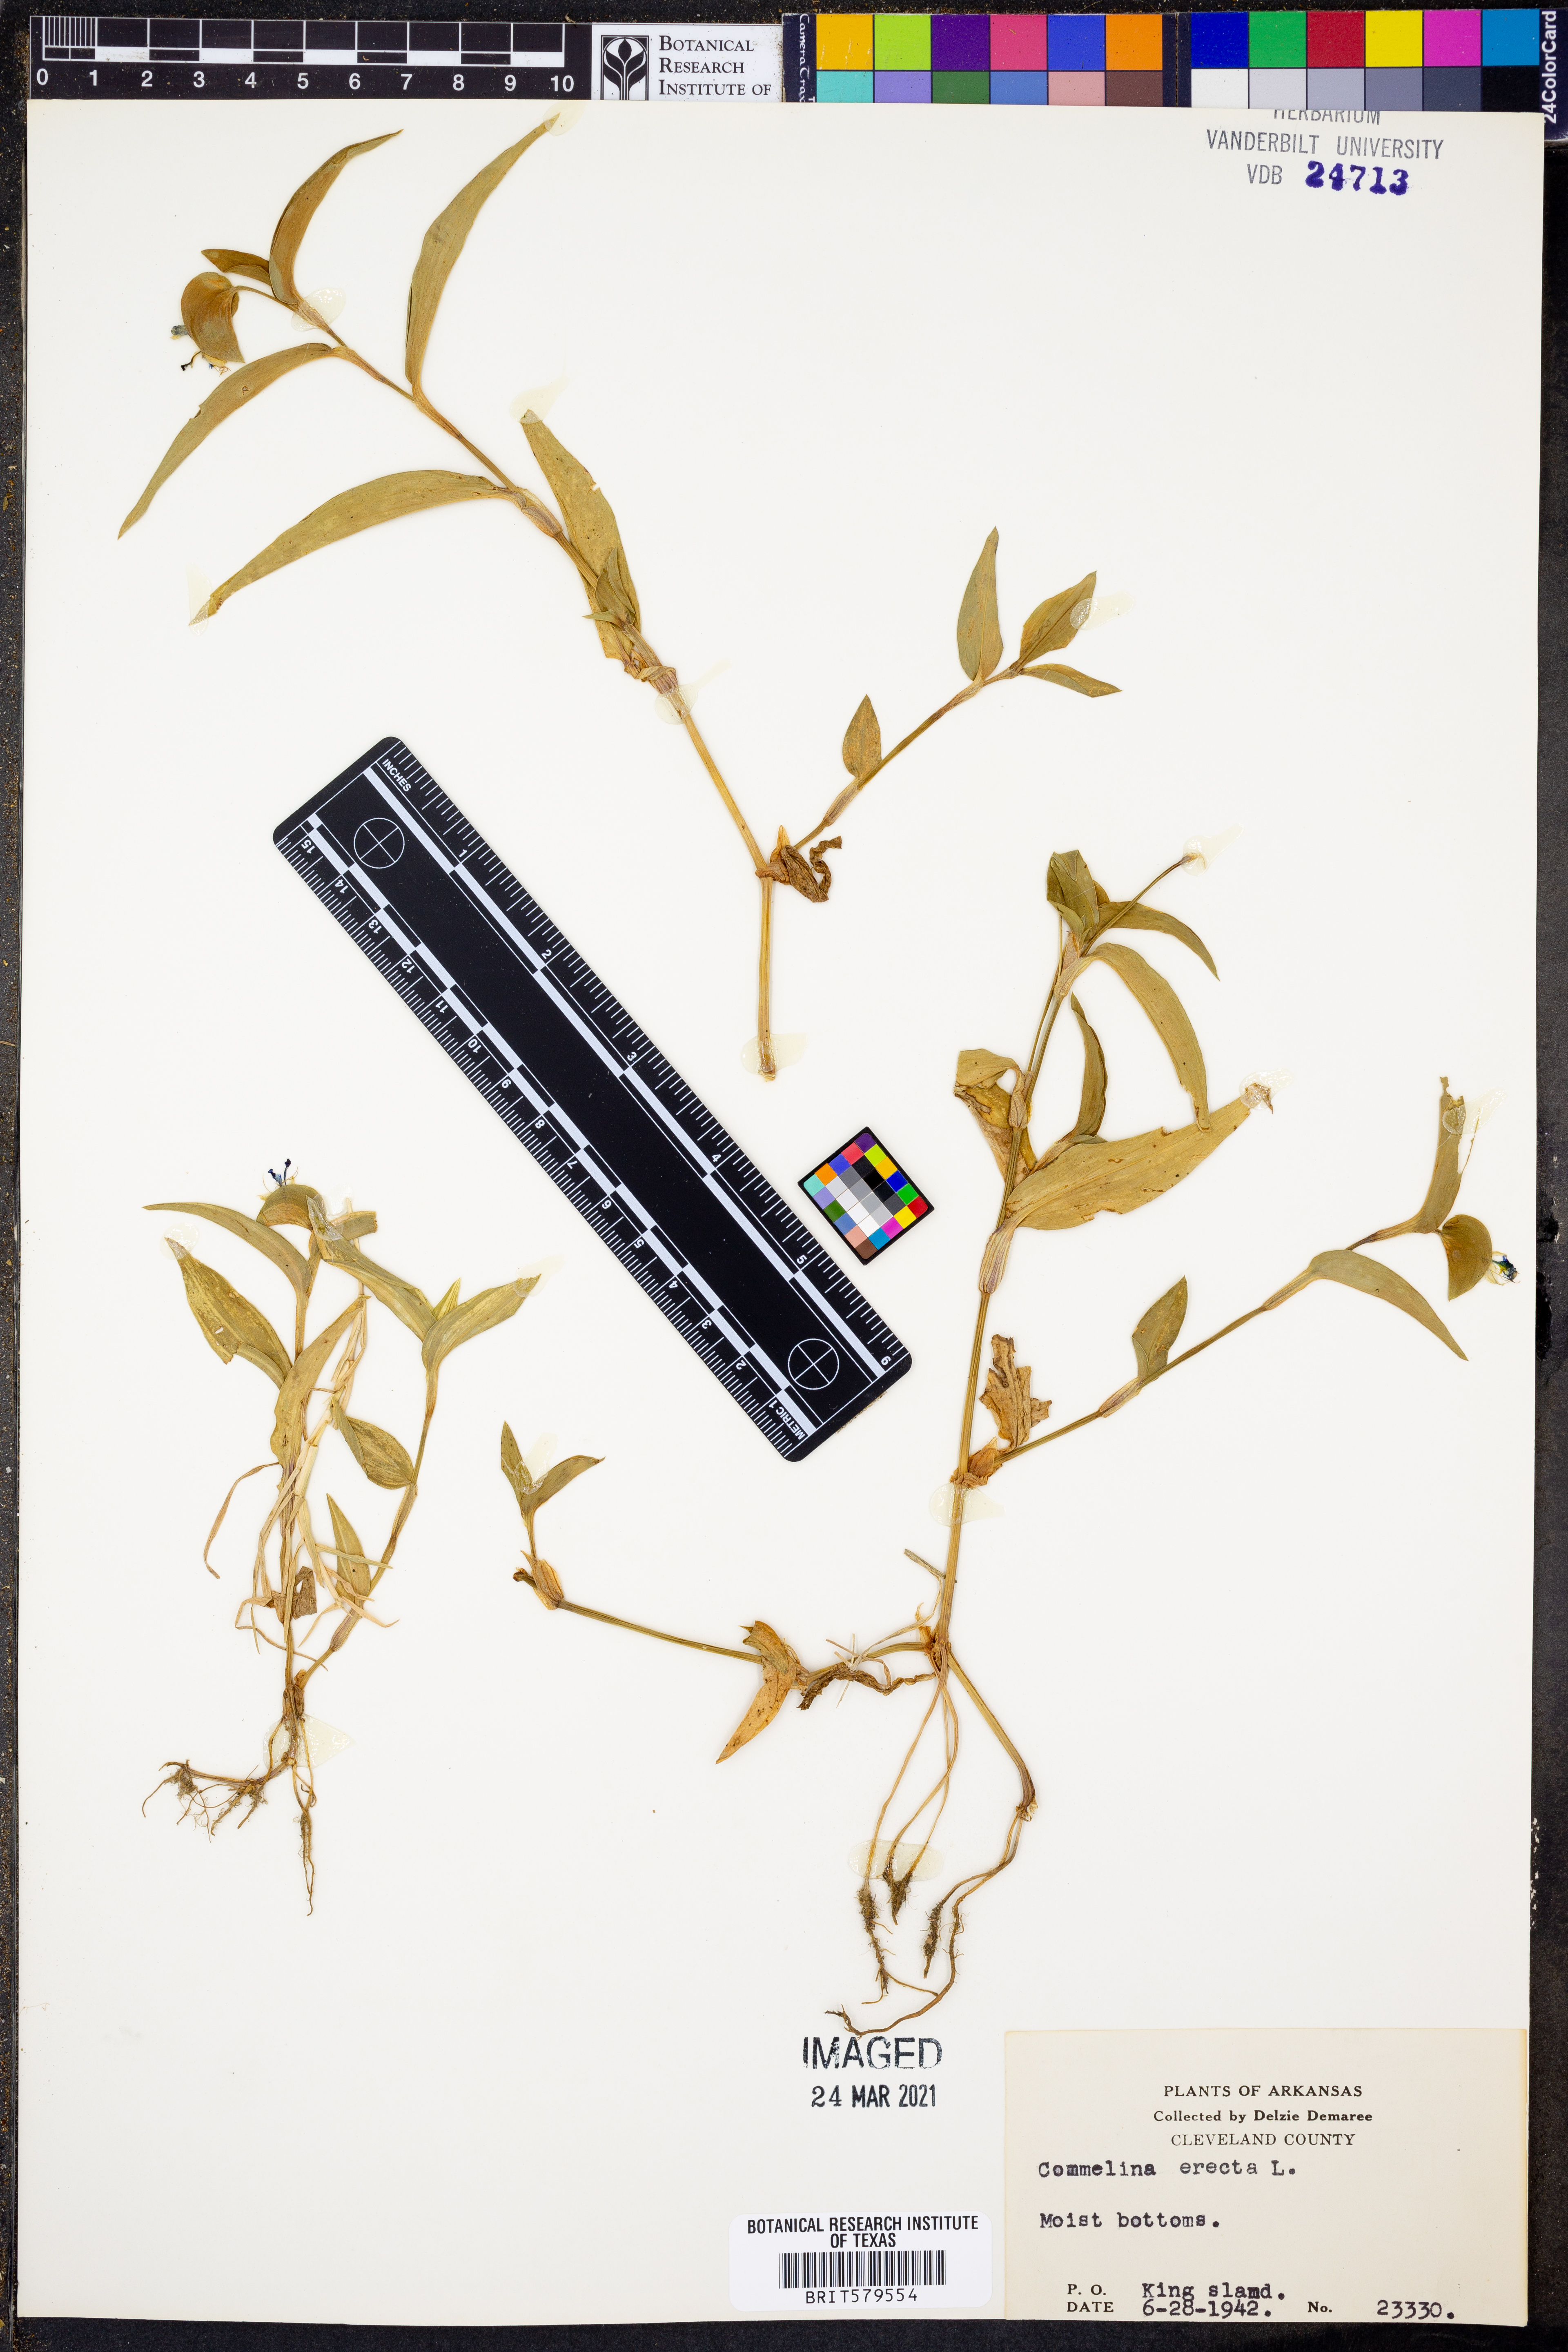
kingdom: Plantae
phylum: Tracheophyta
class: Liliopsida
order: Commelinales
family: Commelinaceae
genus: Commelina
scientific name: Commelina erecta
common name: Blousel blommetjie
